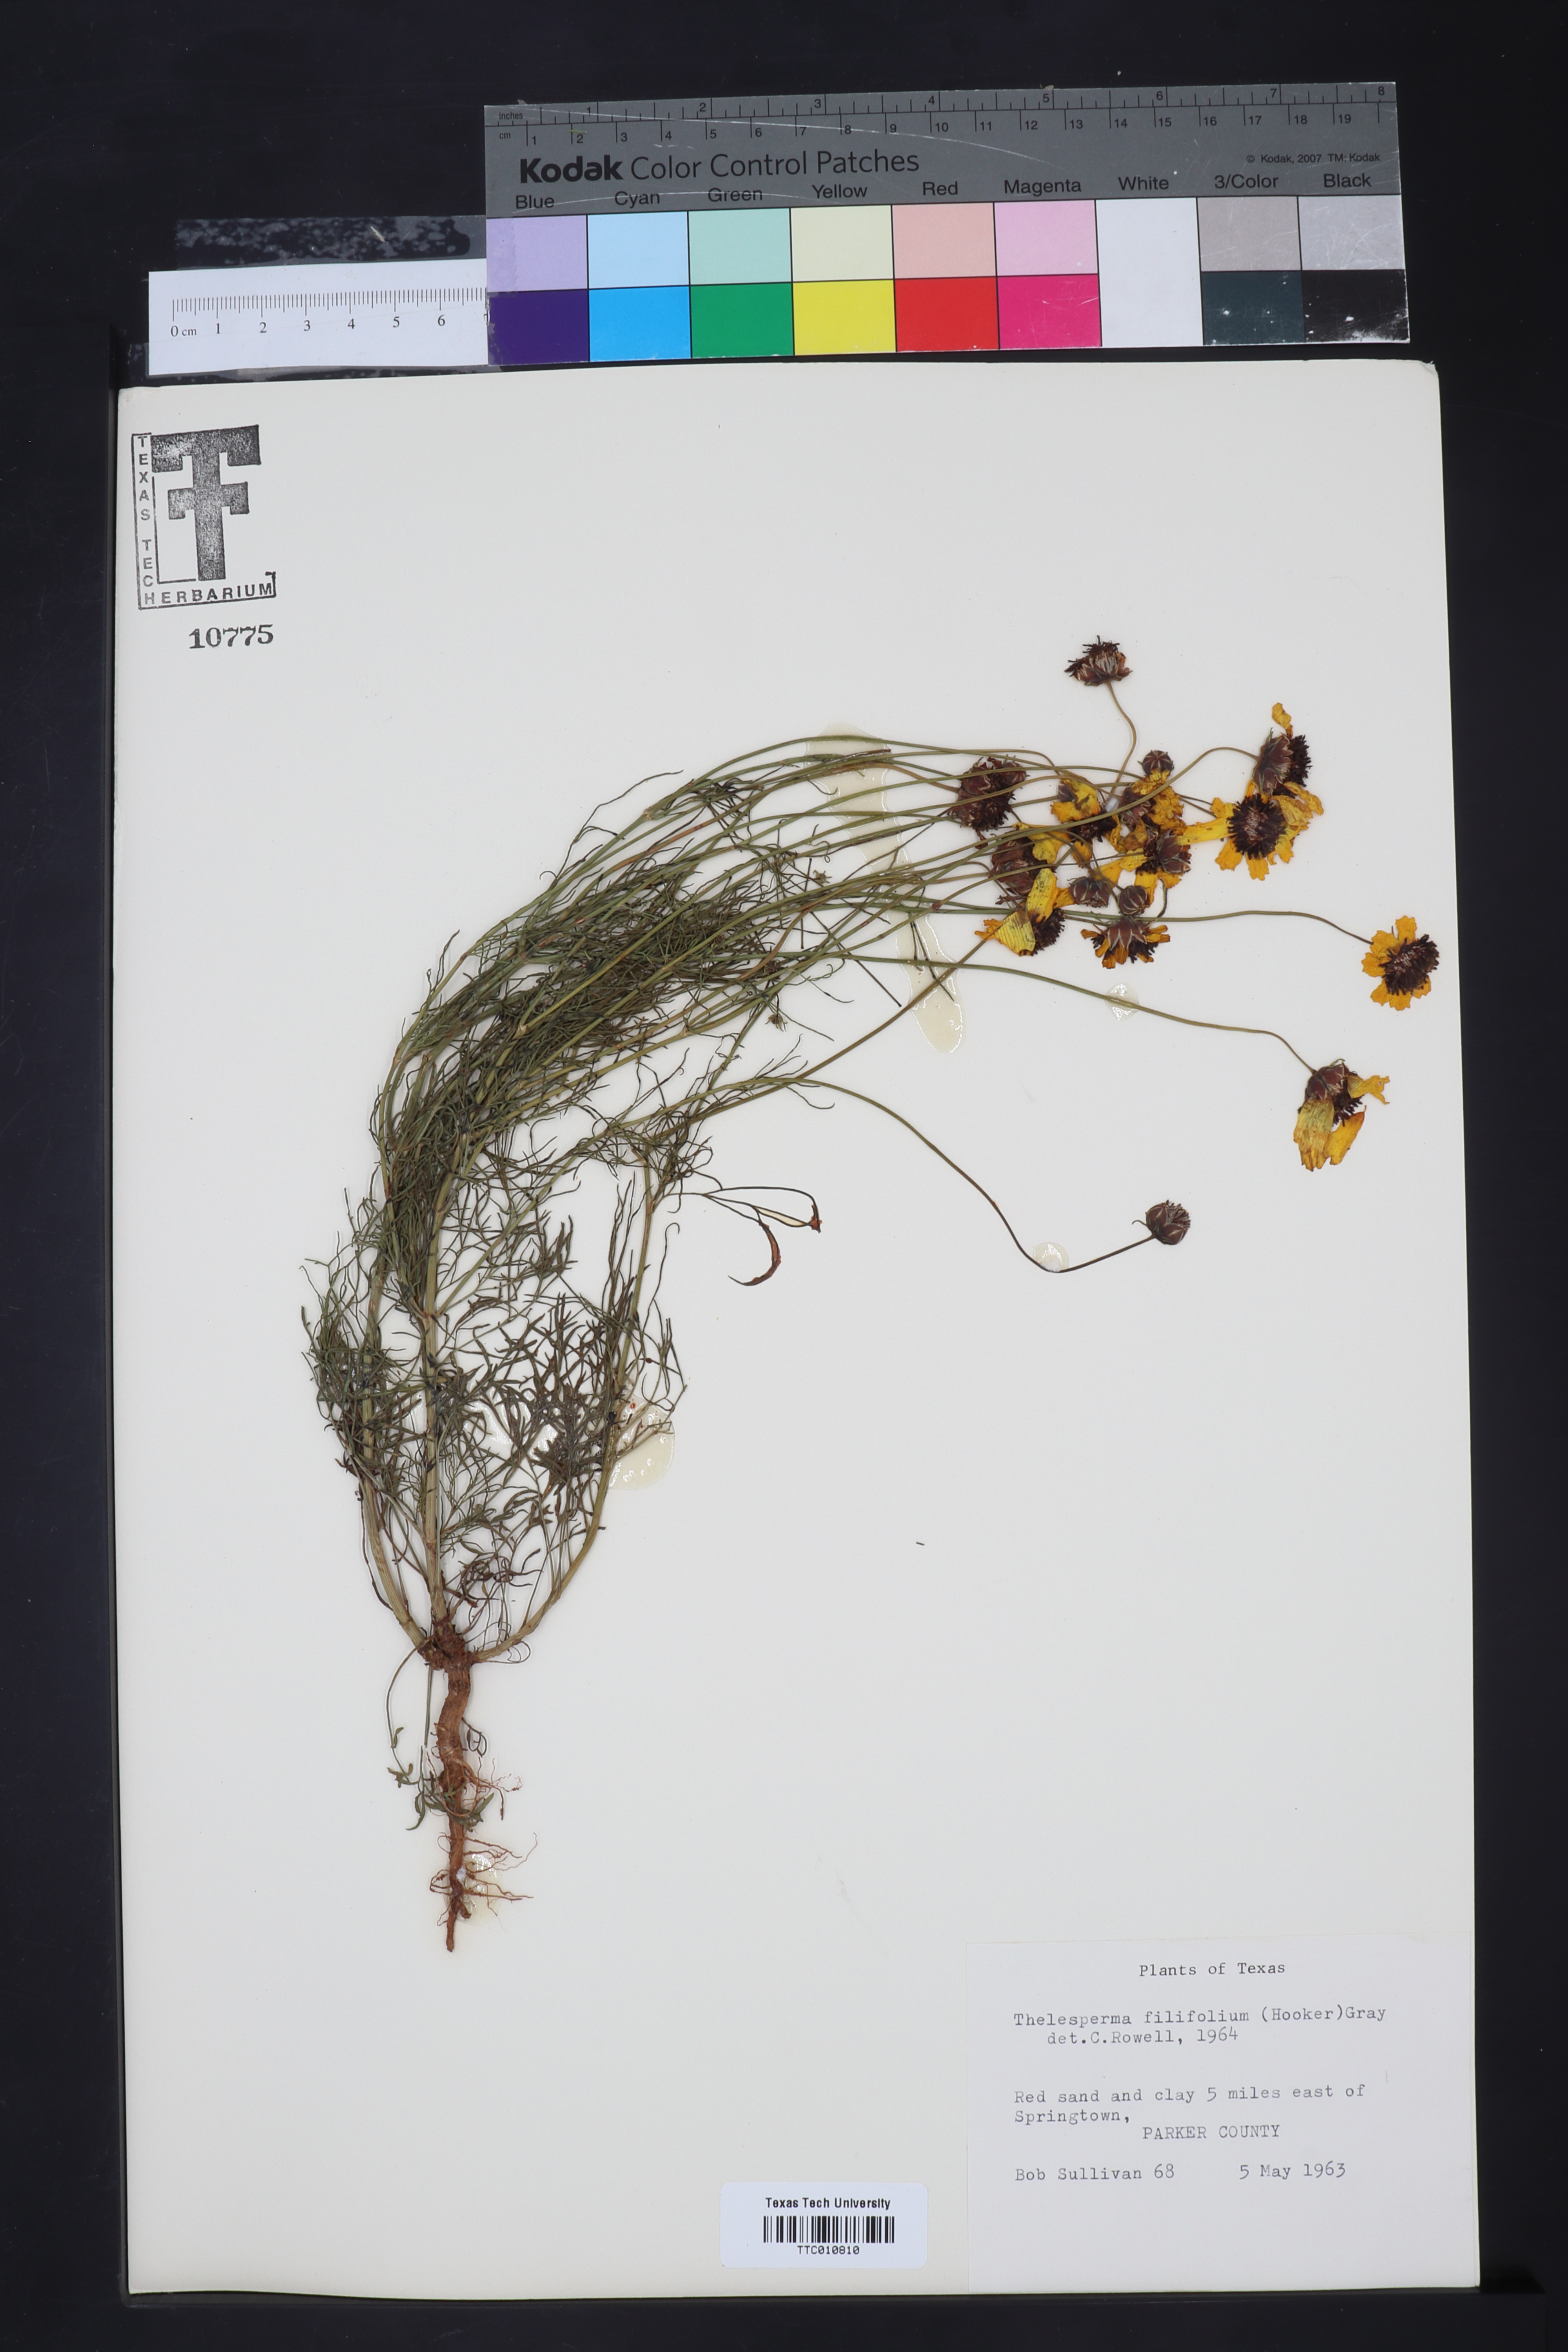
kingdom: Plantae
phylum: Tracheophyta
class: Magnoliopsida
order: Asterales
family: Asteraceae
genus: Thelesperma
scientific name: Thelesperma filifolium
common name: Stiff greenthread
